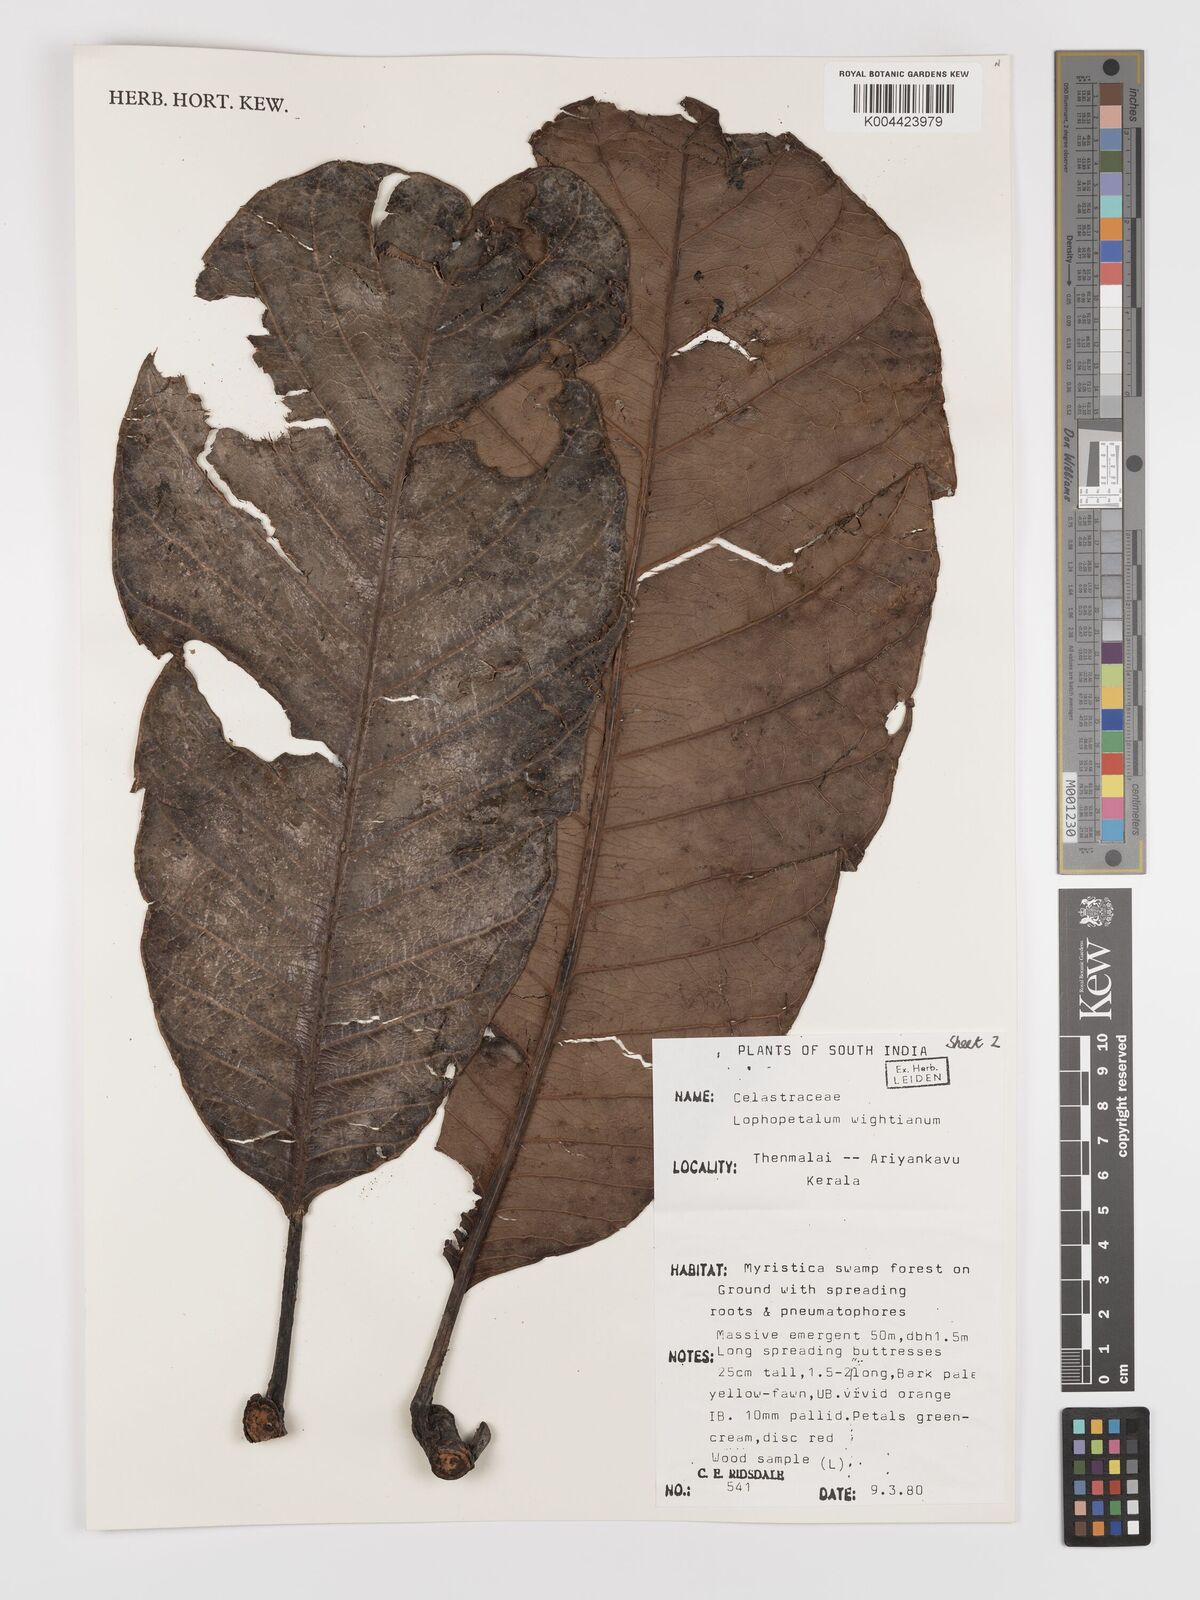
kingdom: Plantae
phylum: Tracheophyta
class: Magnoliopsida
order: Celastrales
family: Celastraceae
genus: Lophopetalum
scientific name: Lophopetalum wightianum
